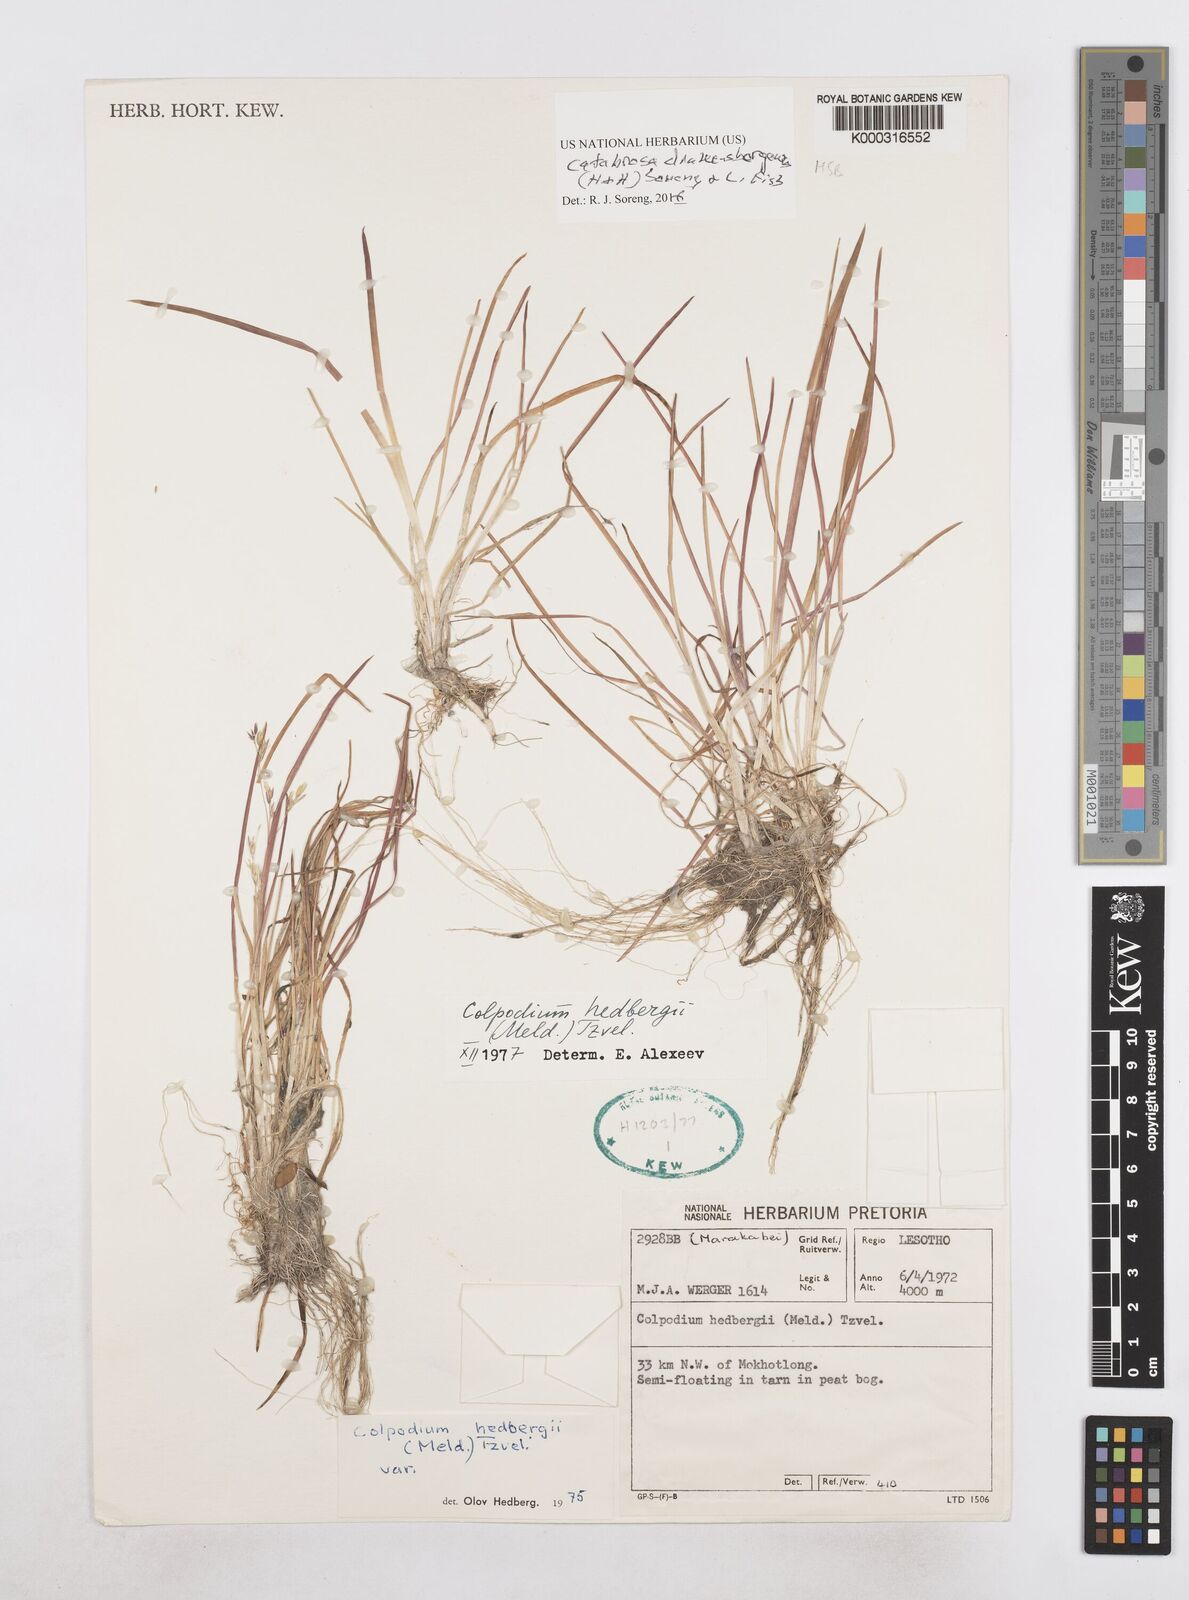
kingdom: Plantae
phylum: Tracheophyta
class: Liliopsida
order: Poales
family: Poaceae
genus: Catabrosa
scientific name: Catabrosa drakensbergensis
